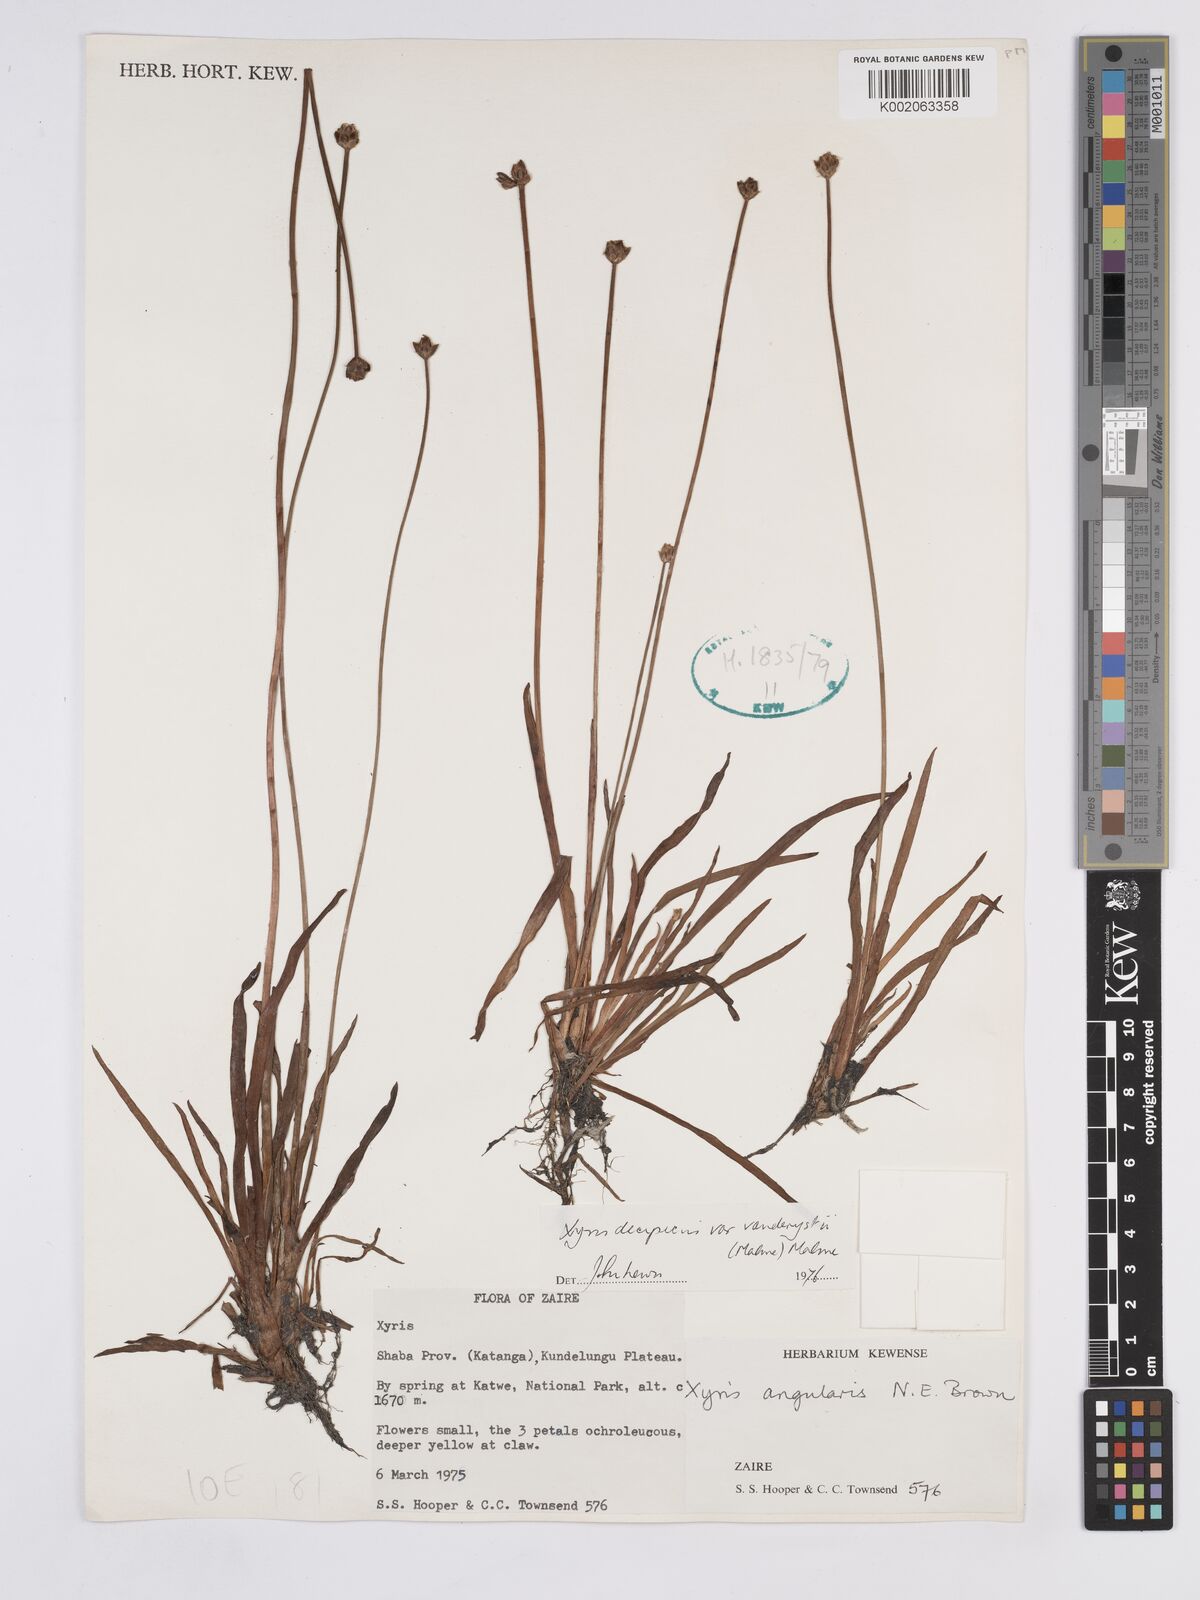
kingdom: Plantae
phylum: Tracheophyta
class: Liliopsida
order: Poales
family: Xyridaceae
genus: Xyris
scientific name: Xyris decipiens
